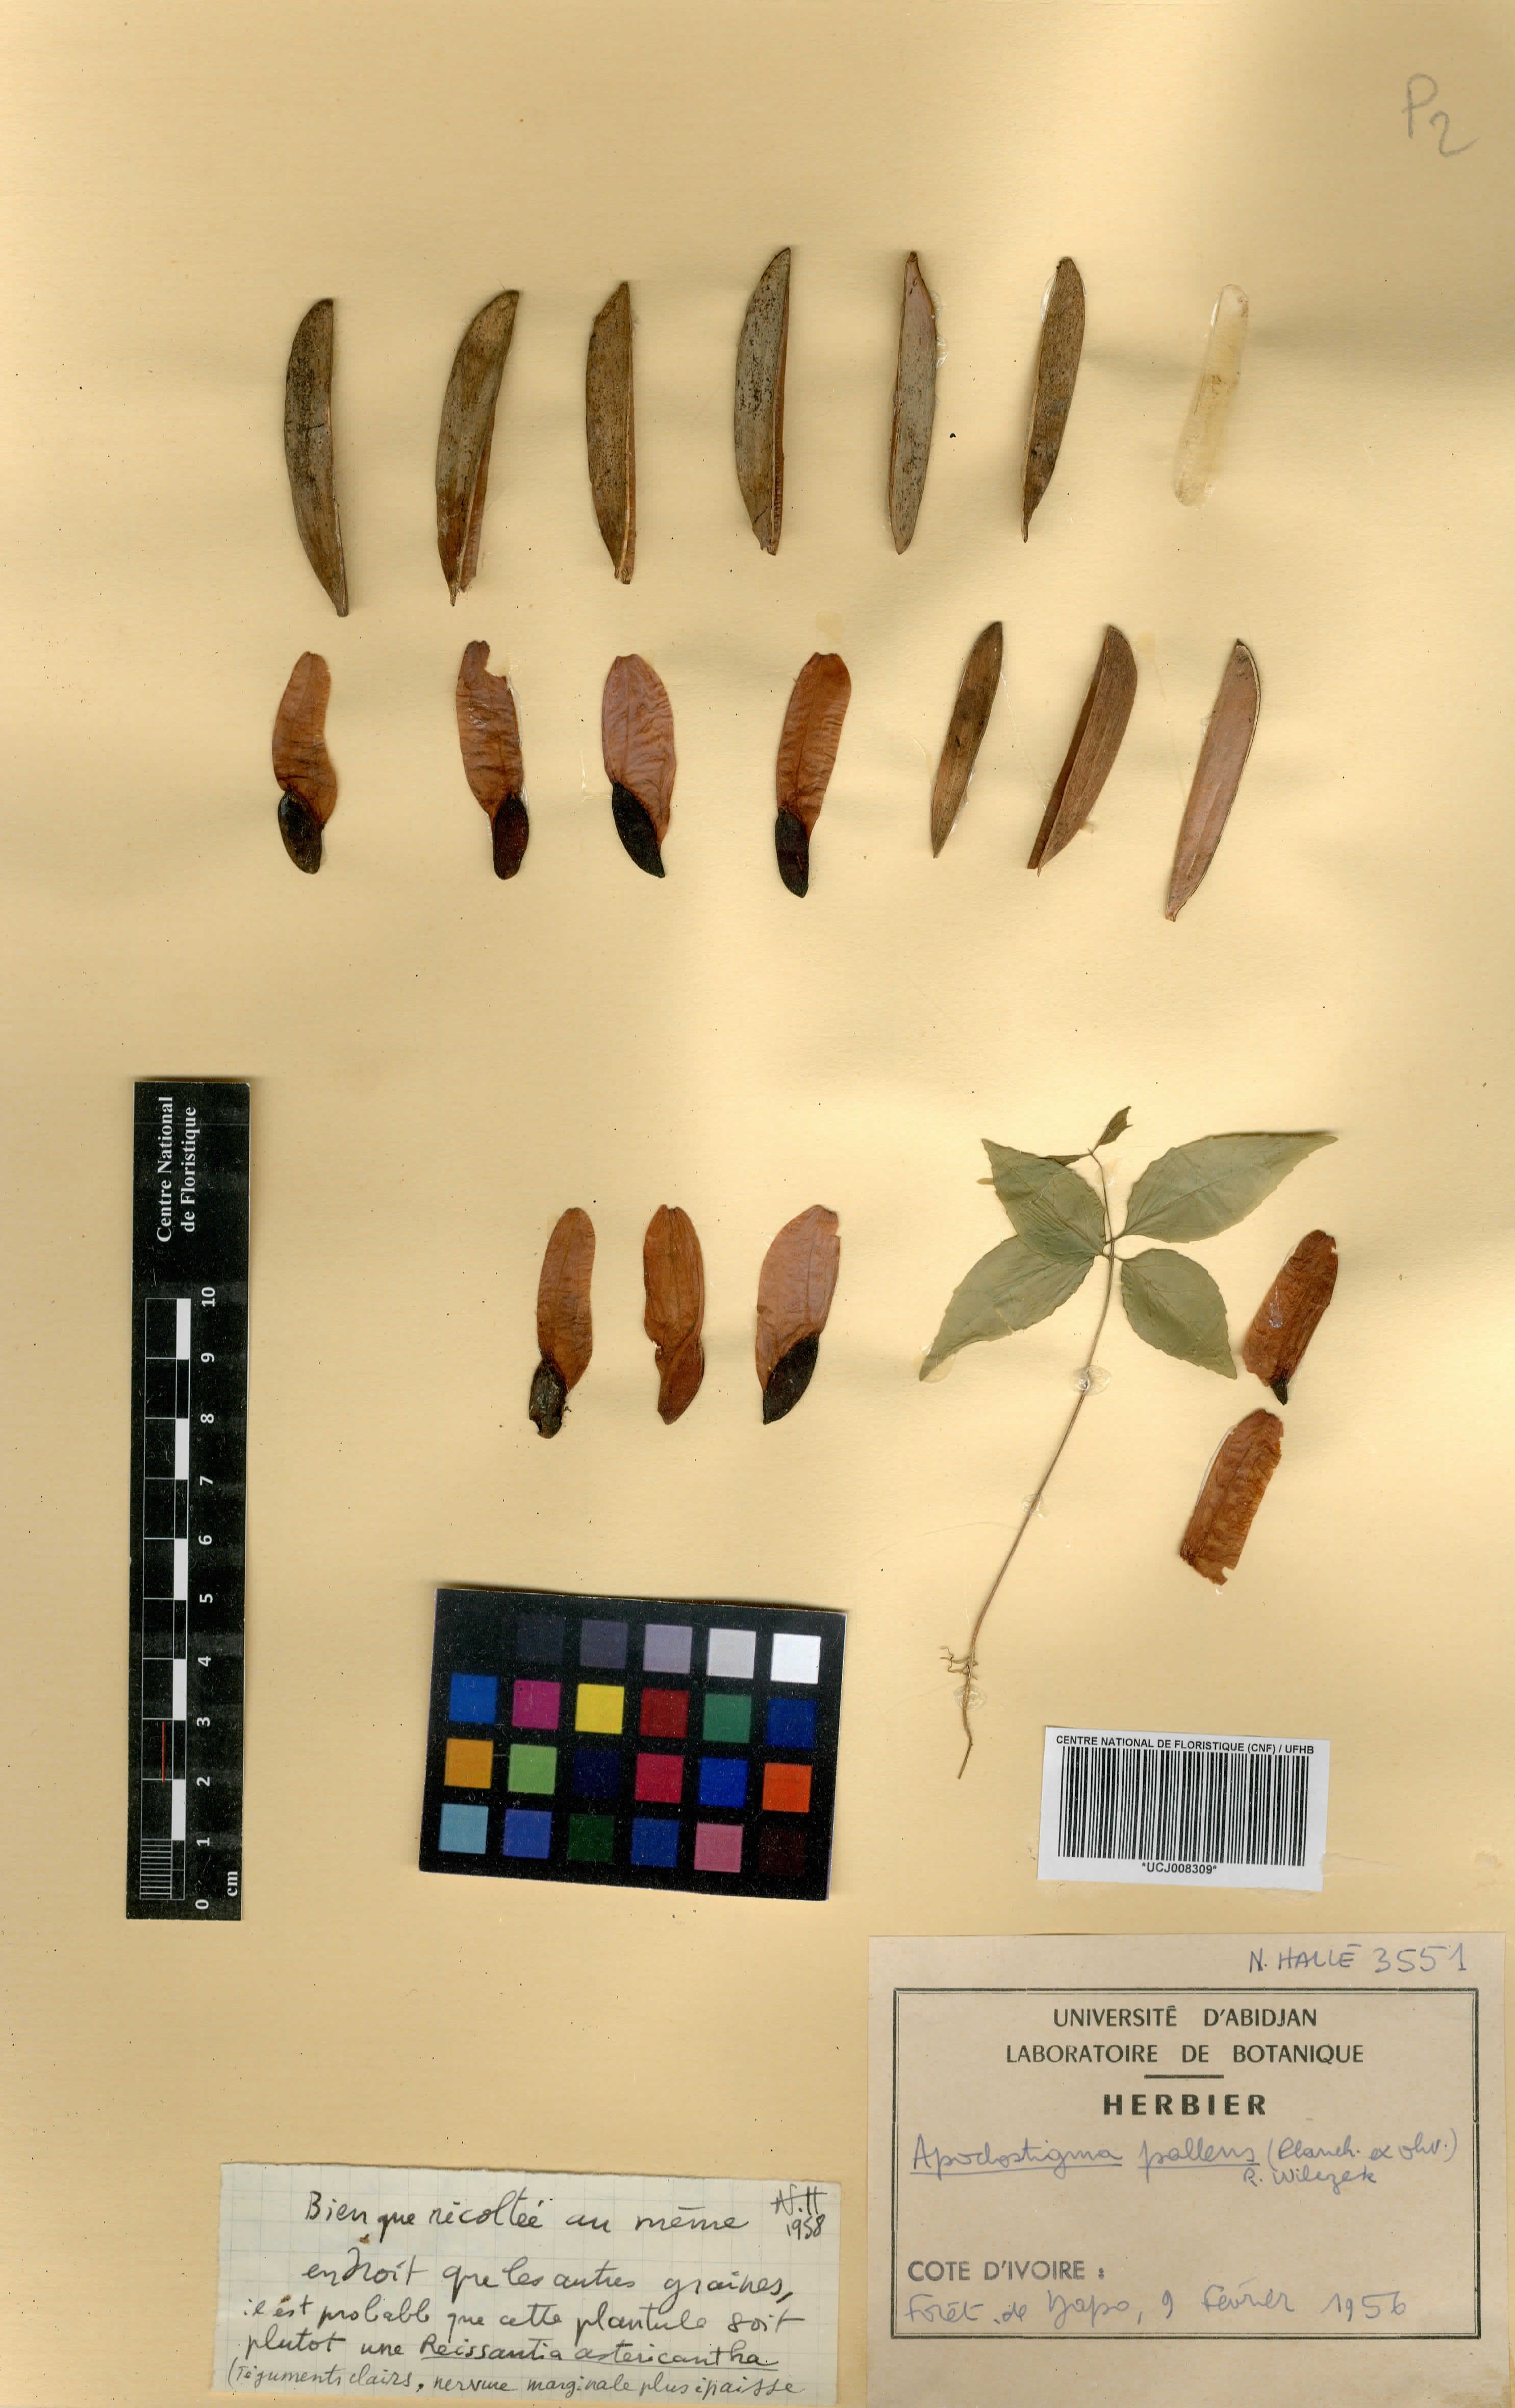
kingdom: Plantae
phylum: Tracheophyta
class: Magnoliopsida
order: Celastrales
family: Celastraceae
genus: Apodostigma
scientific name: Apodostigma pallens
